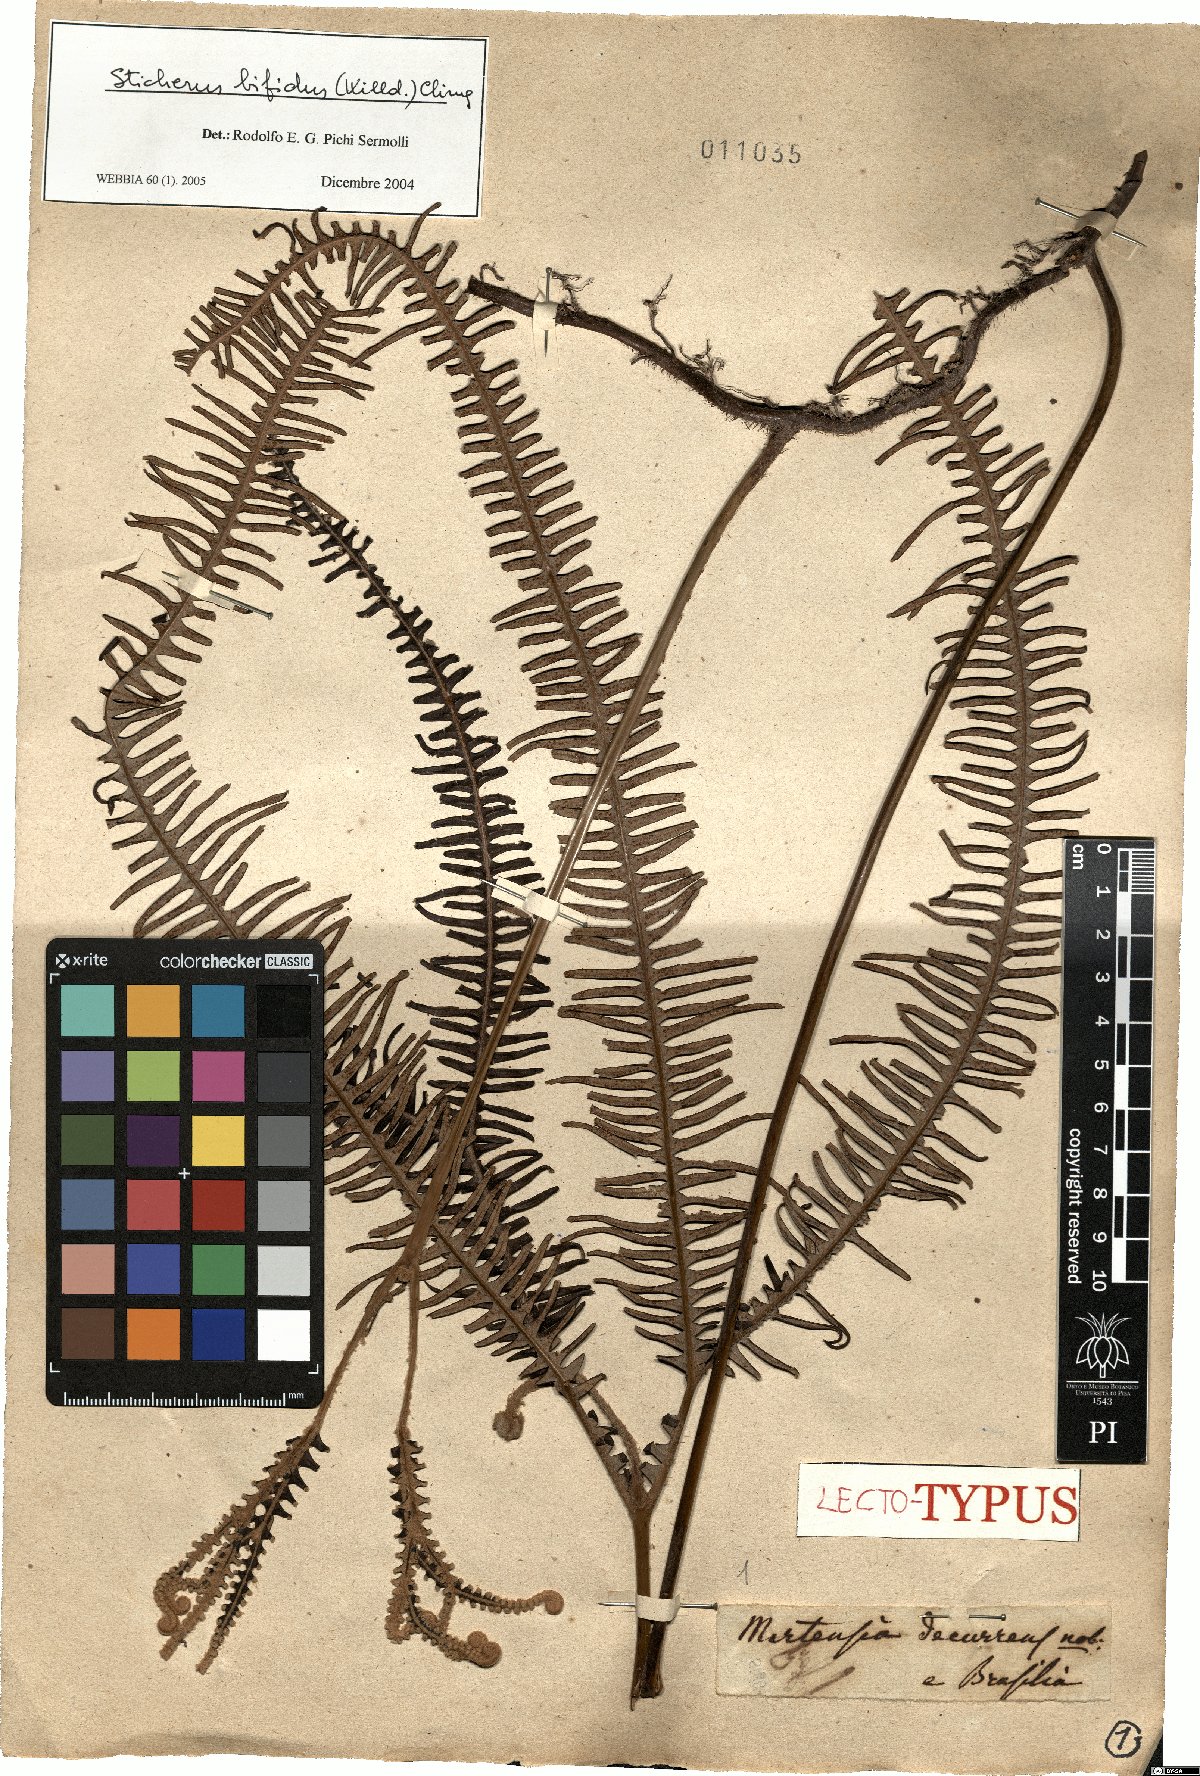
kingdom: Plantae
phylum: Tracheophyta
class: Polypodiopsida
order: Gleicheniales
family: Gleicheniaceae
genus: Sticherus
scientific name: Sticherus bifidus
